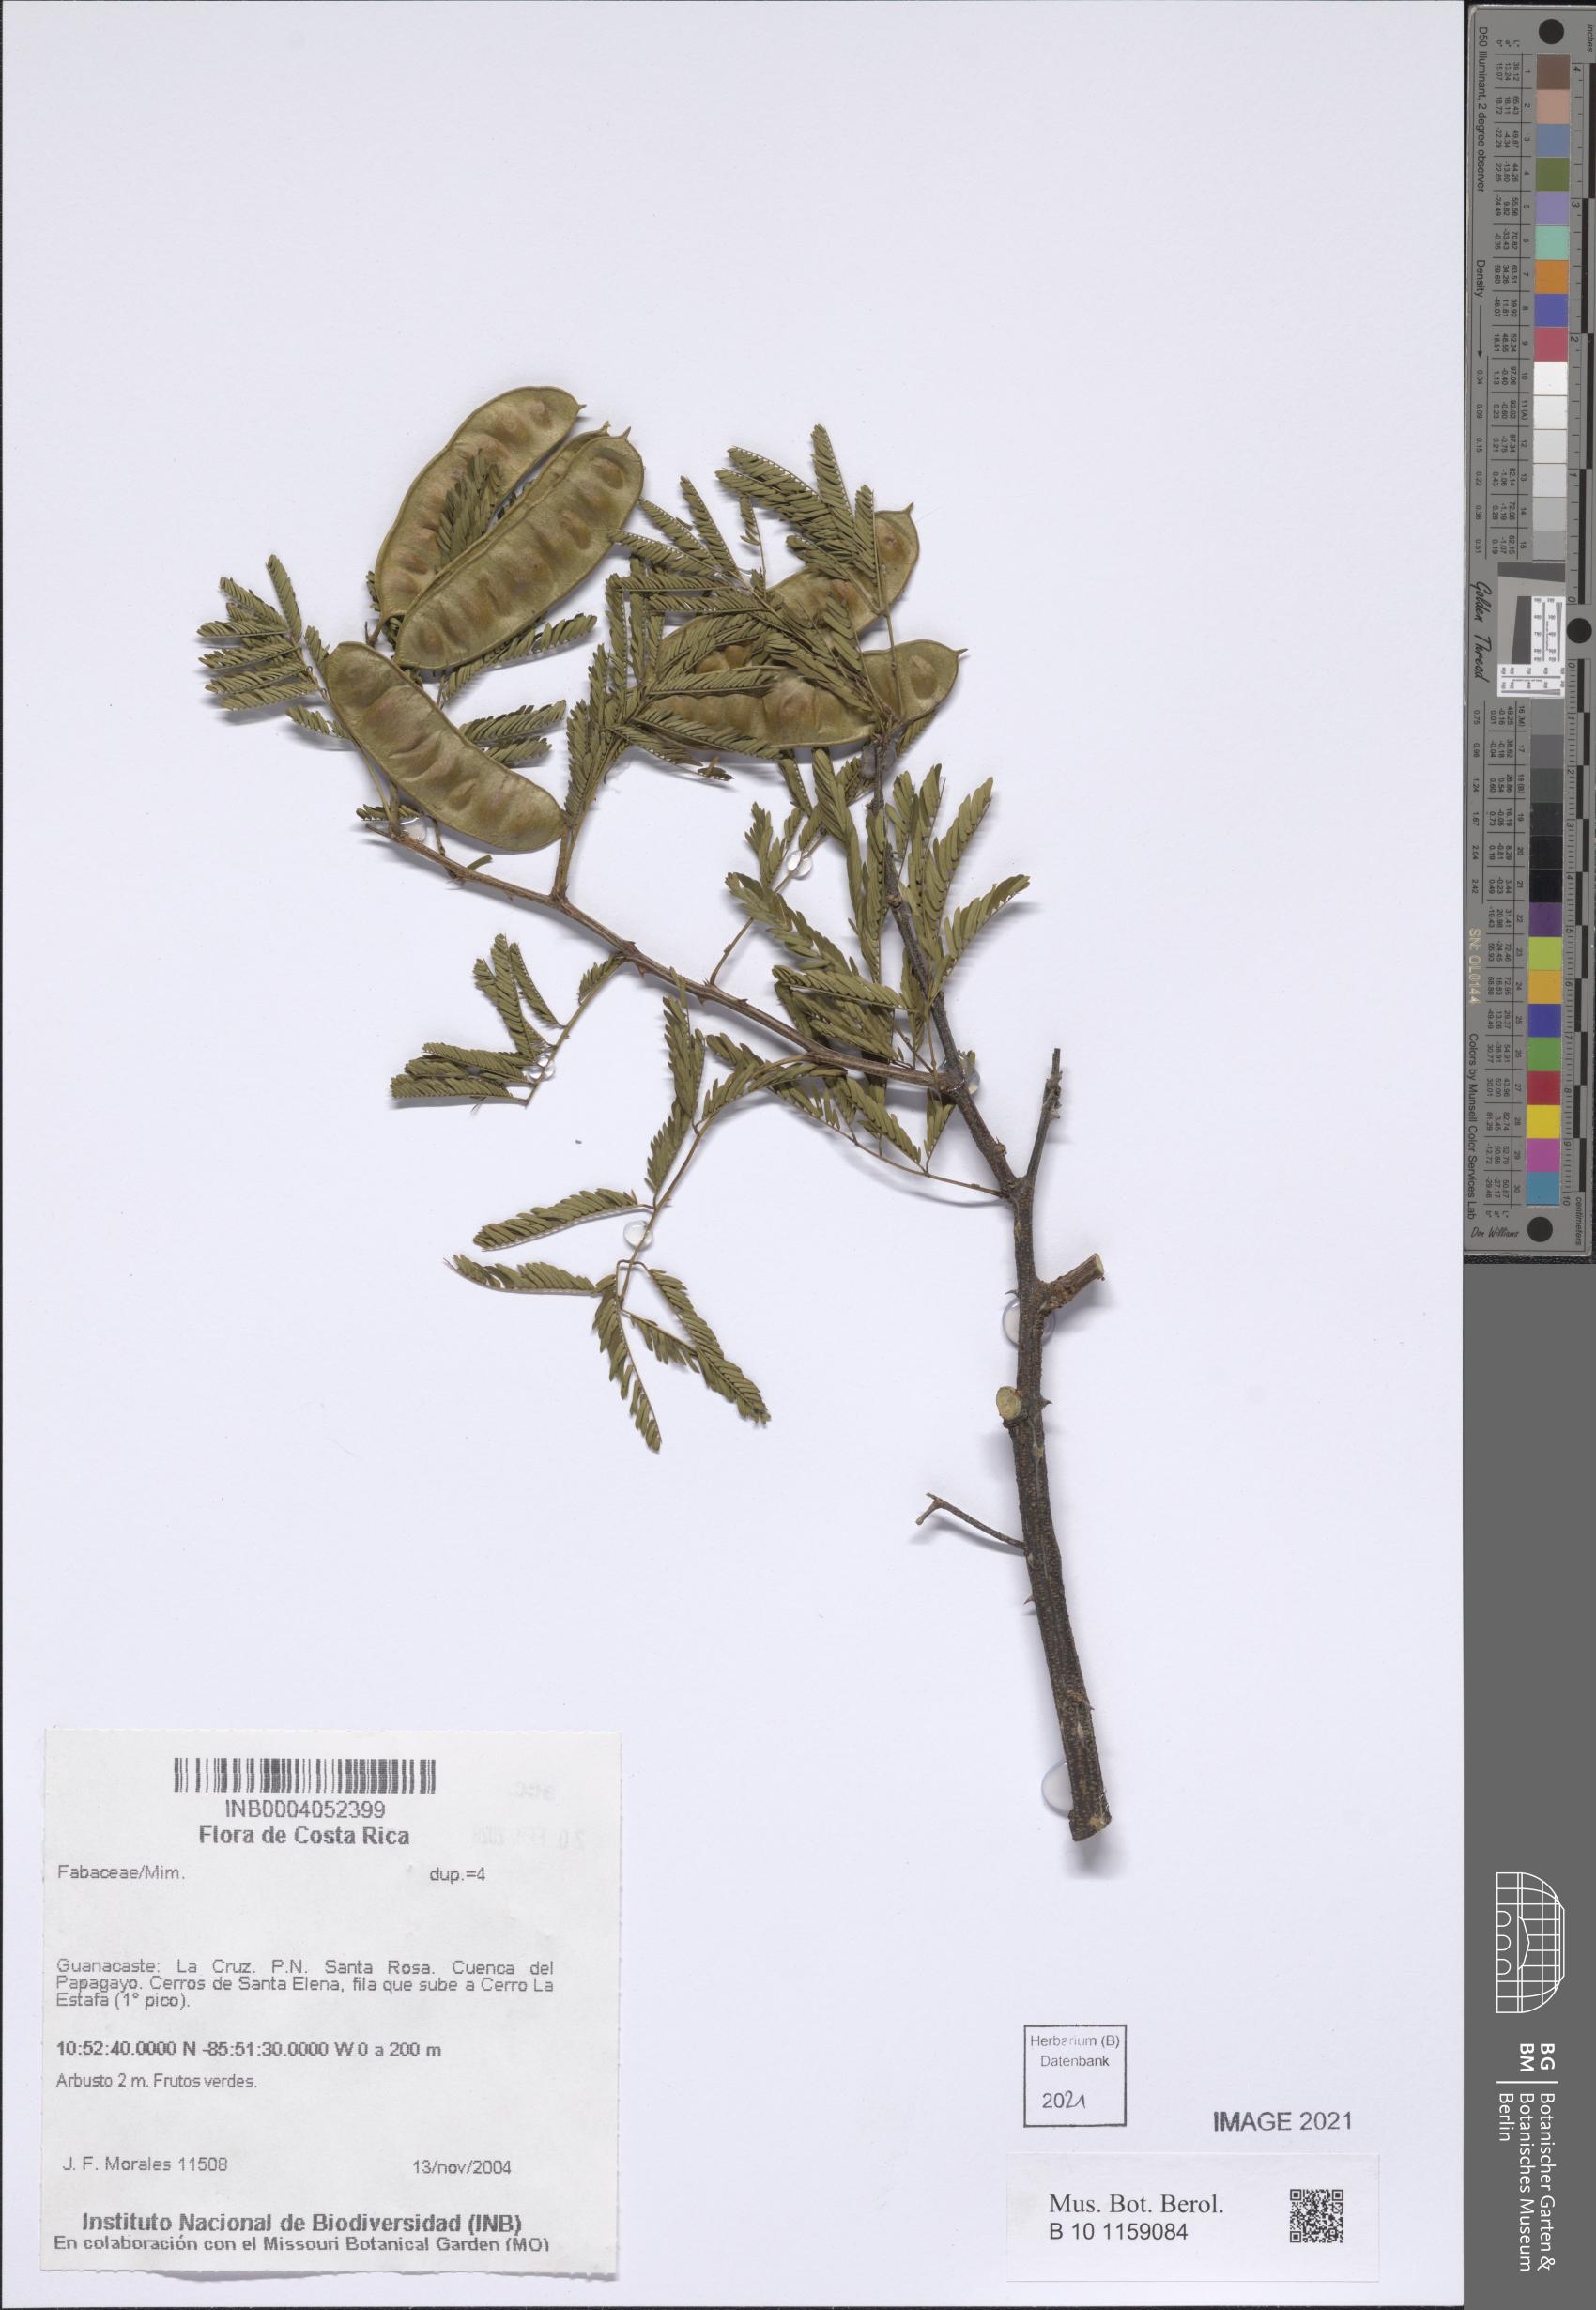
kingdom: Plantae
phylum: Tracheophyta
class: Magnoliopsida
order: Fabales
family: Fabaceae
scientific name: Fabaceae
